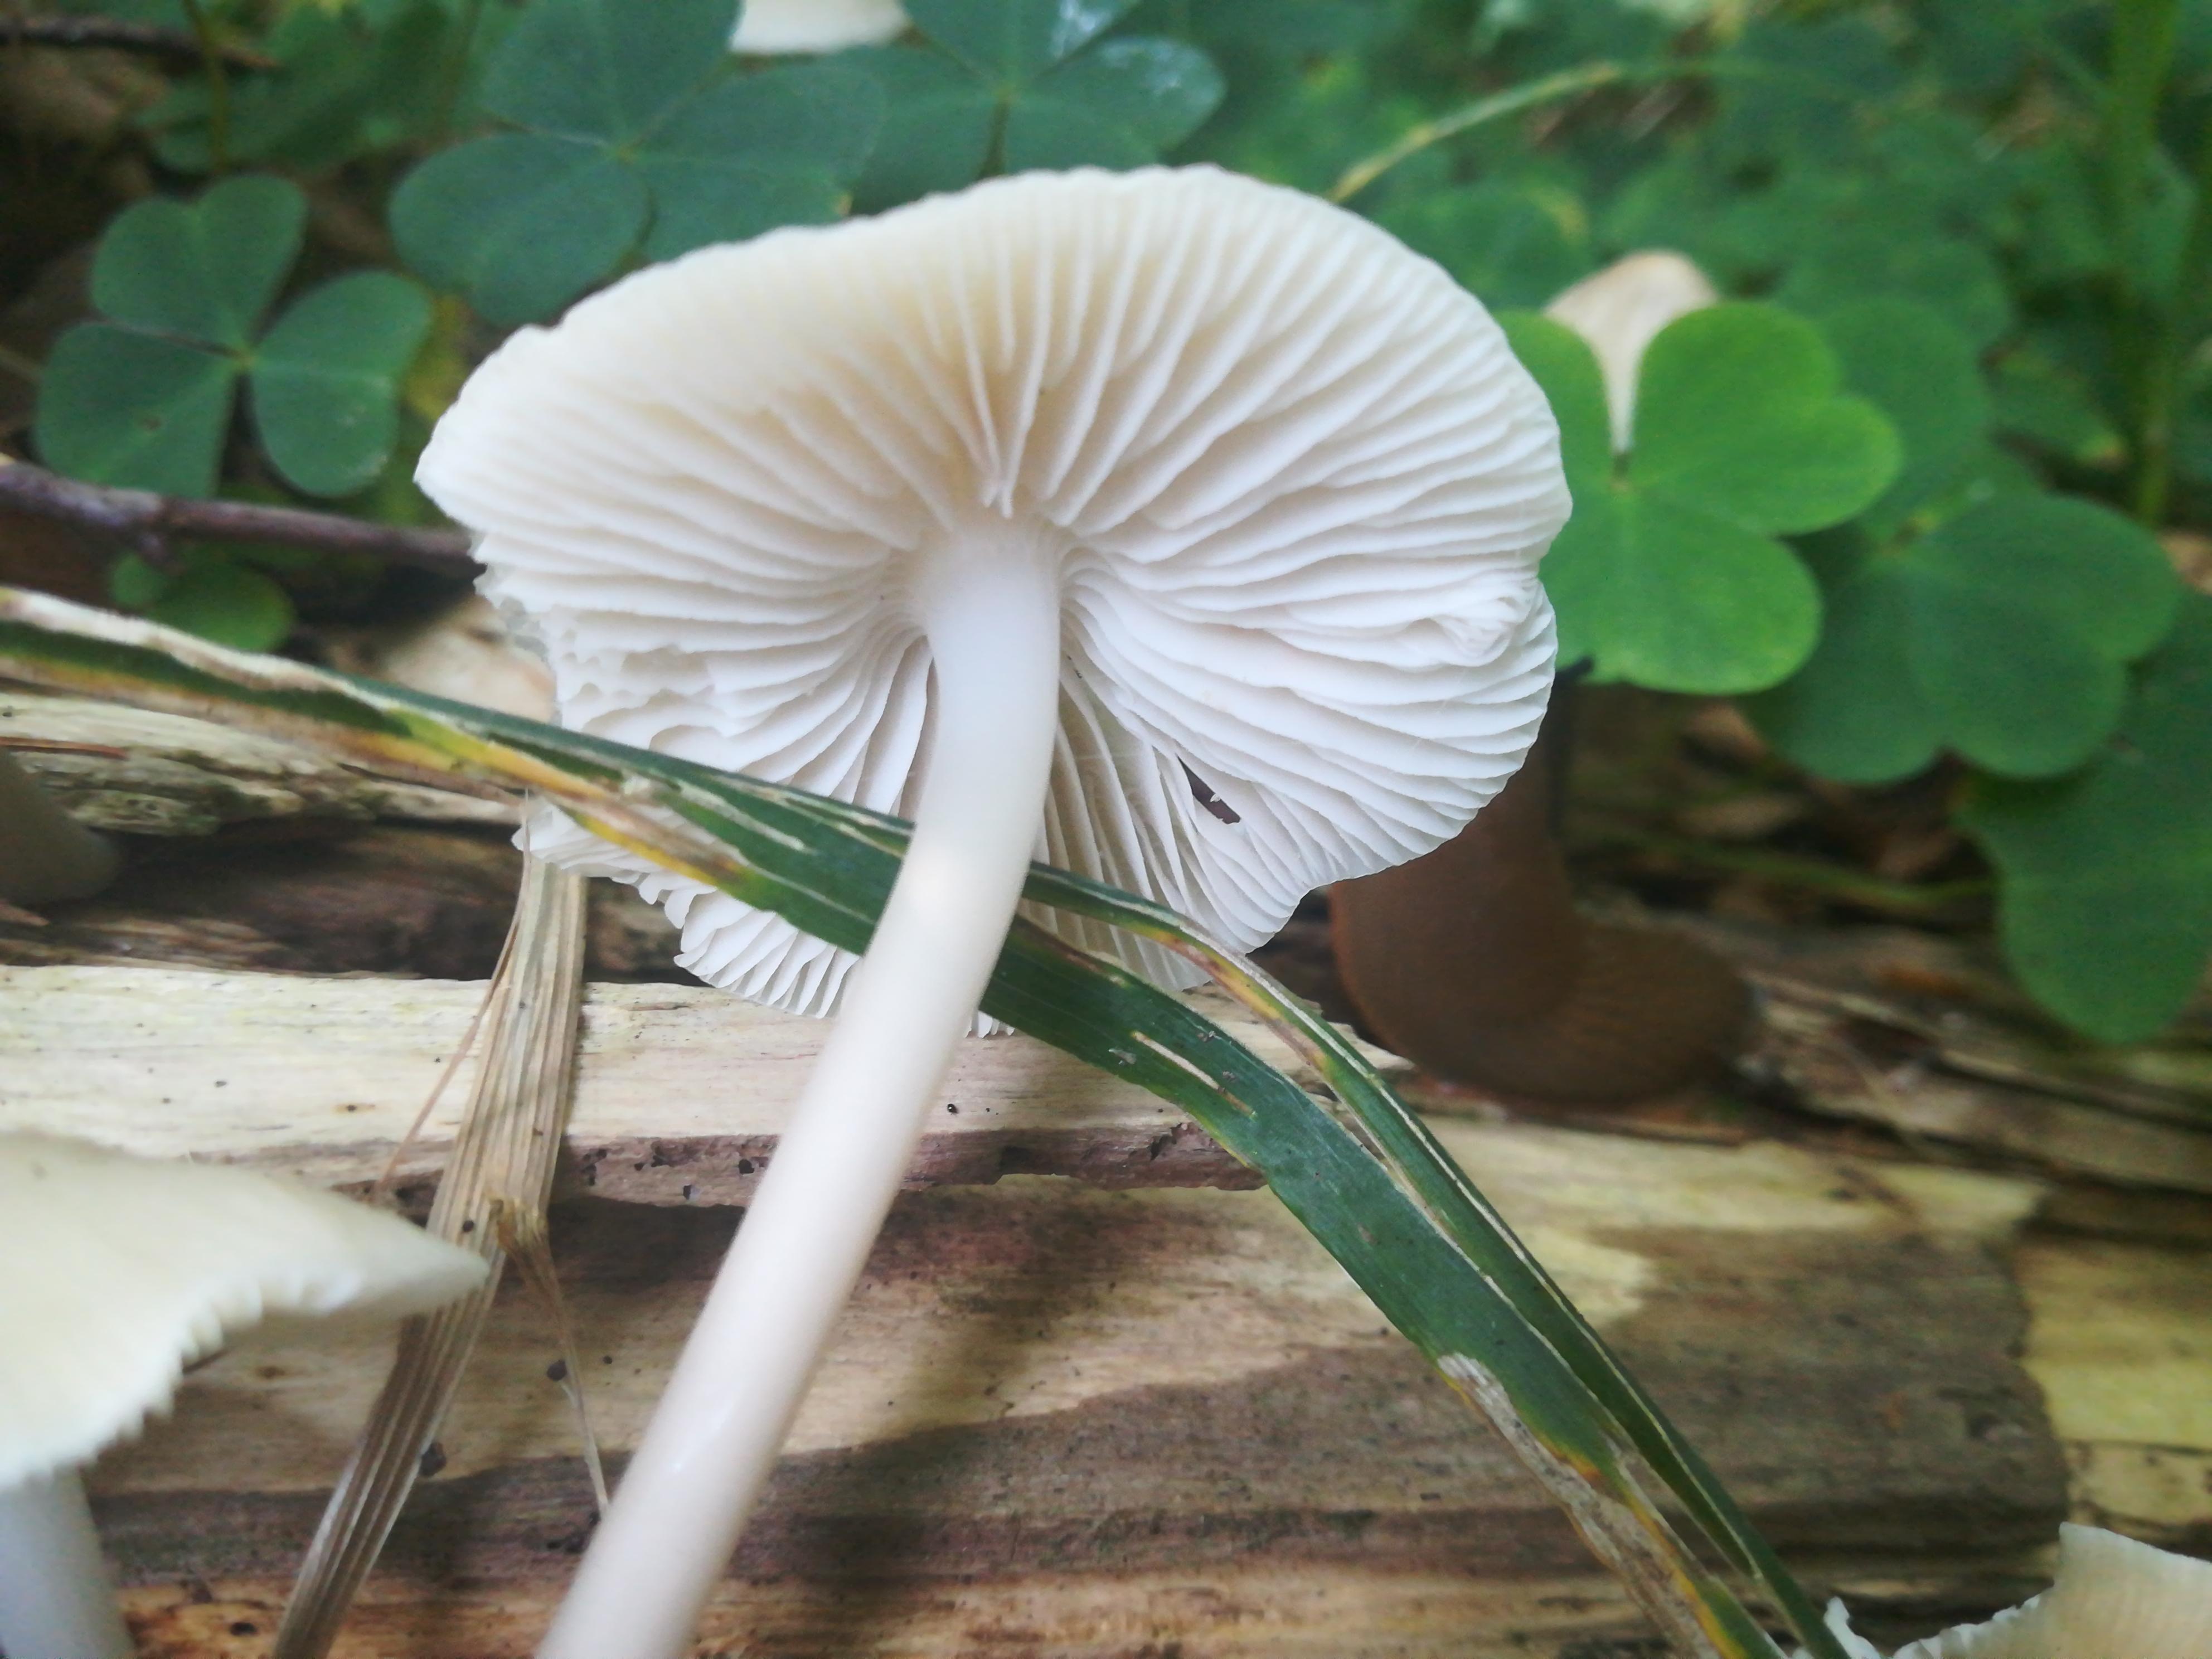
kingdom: Fungi
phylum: Basidiomycota
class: Agaricomycetes
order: Agaricales
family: Mycenaceae
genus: Mycena
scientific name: Mycena galericulata
